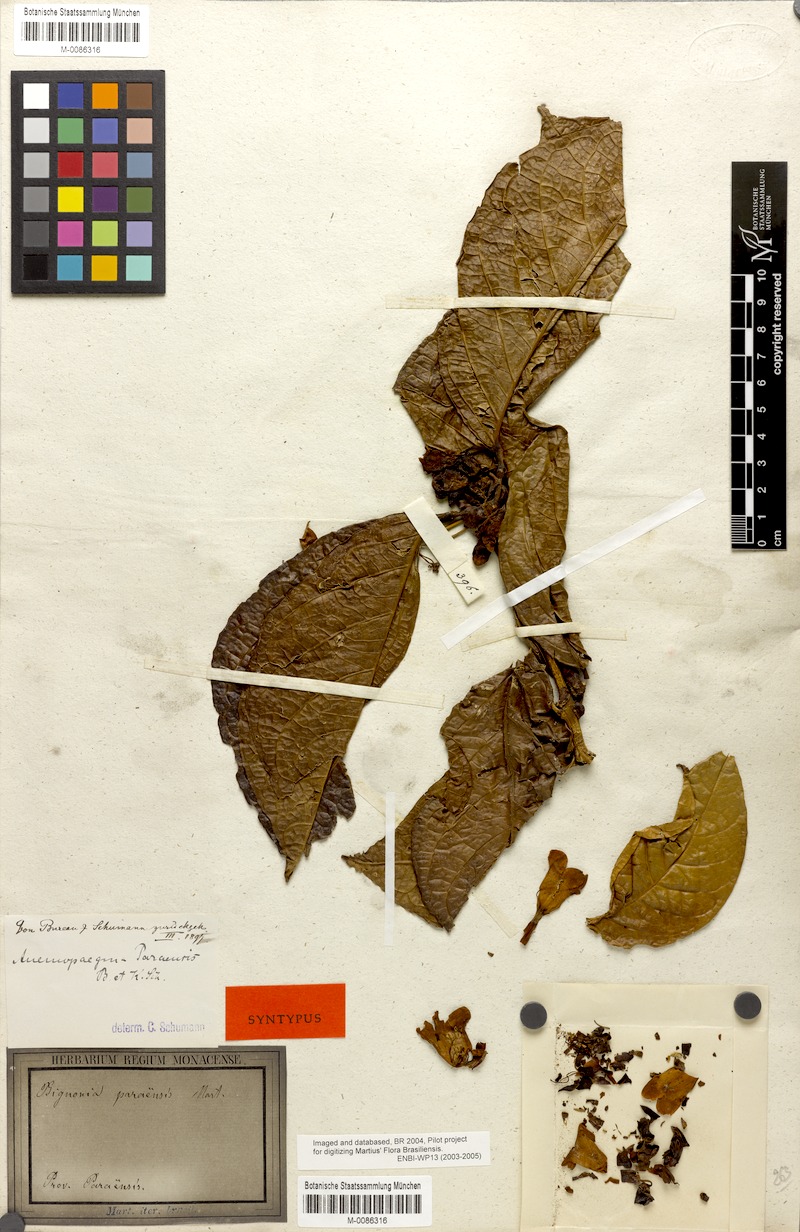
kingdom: Plantae
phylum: Tracheophyta
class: Magnoliopsida
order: Lamiales
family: Bignoniaceae
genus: Anemopaegma
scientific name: Anemopaegma paraense
